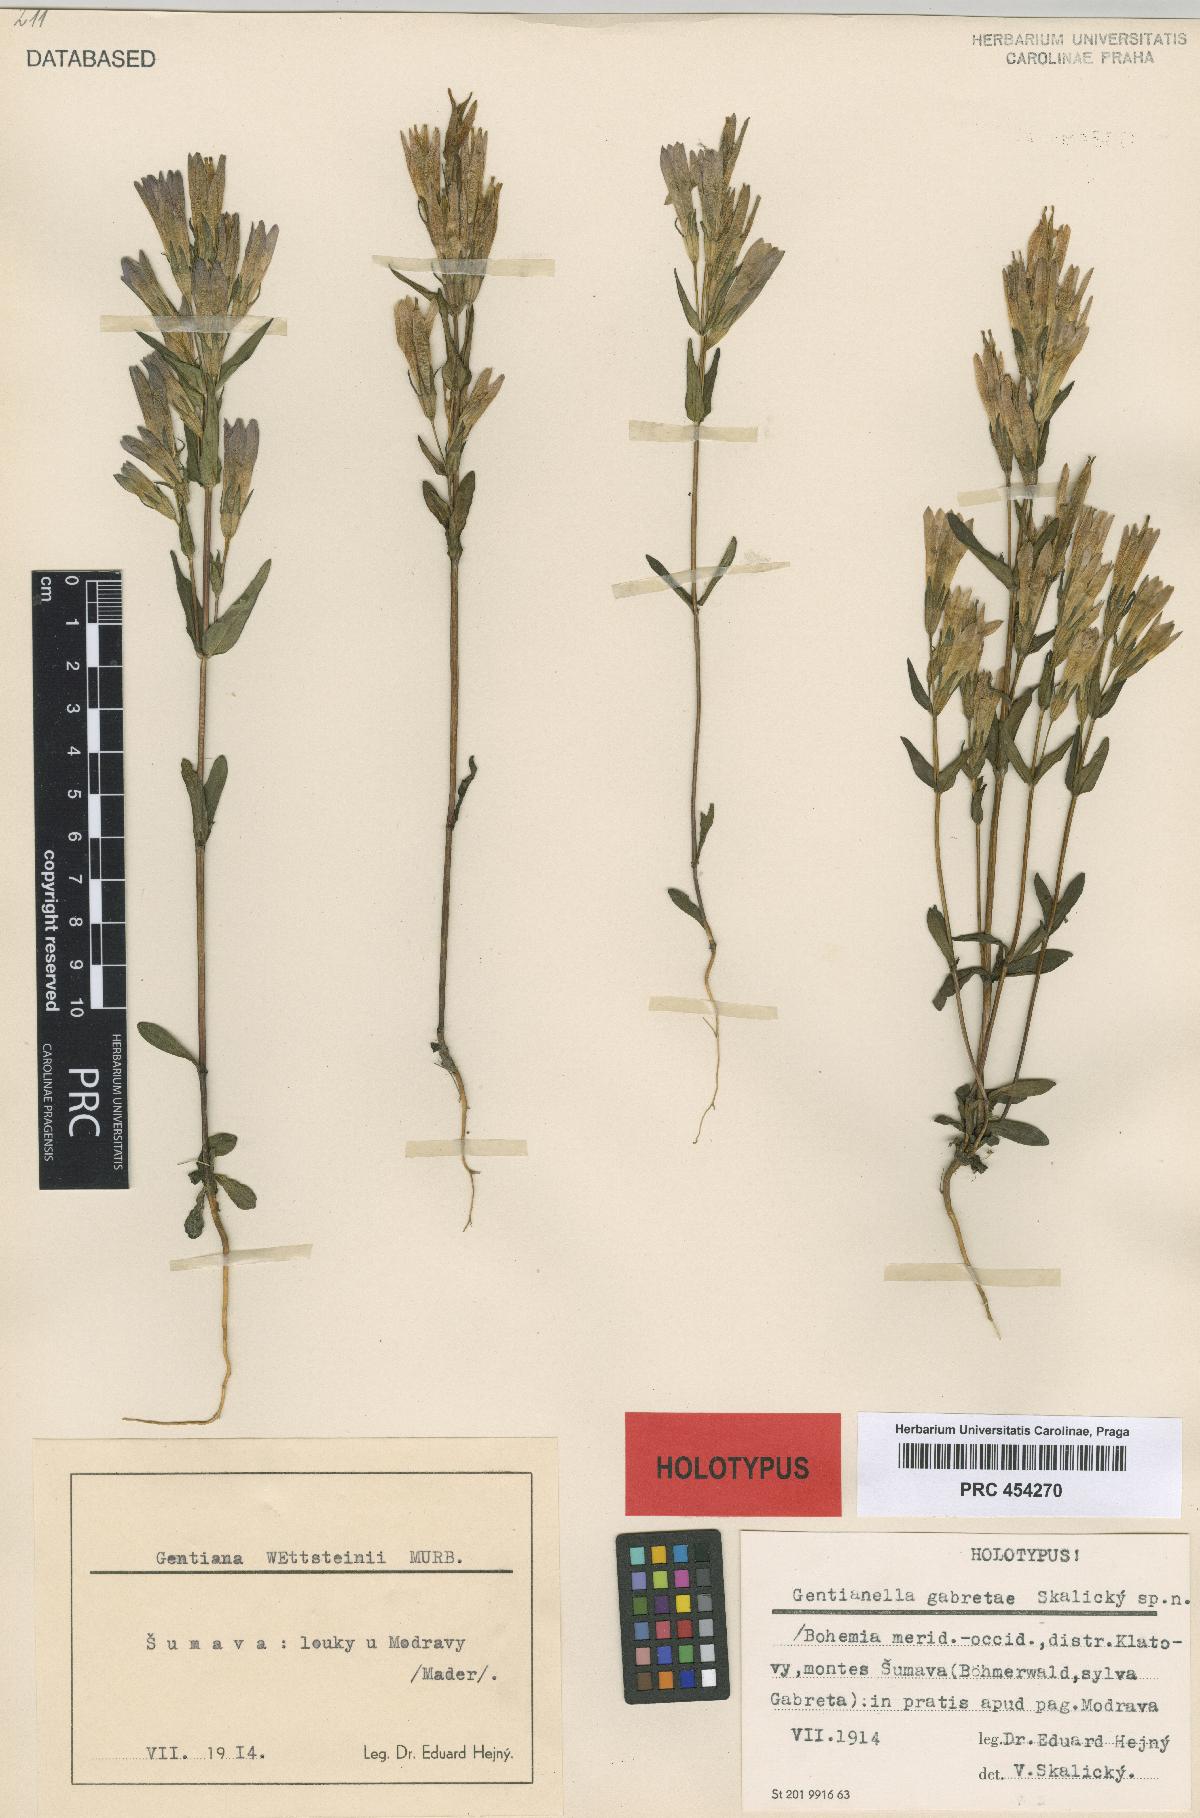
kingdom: Plantae
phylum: Tracheophyta
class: Magnoliopsida
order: Gentianales
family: Gentianaceae
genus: Gentianella
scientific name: Gentianella praecox
